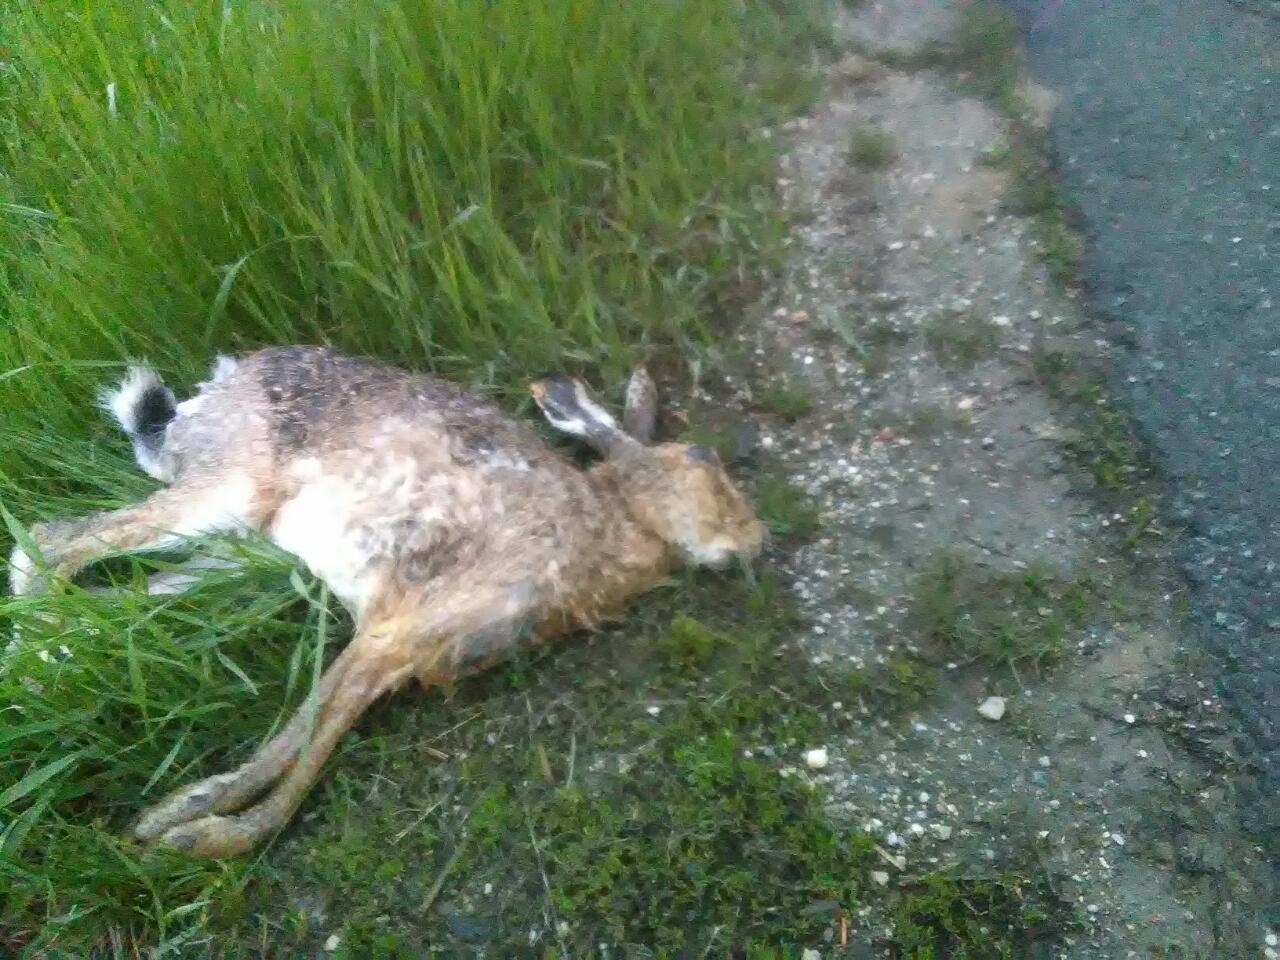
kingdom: Animalia
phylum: Chordata
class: Mammalia
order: Lagomorpha
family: Leporidae
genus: Lepus
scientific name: Lepus europaeus
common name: European hare
